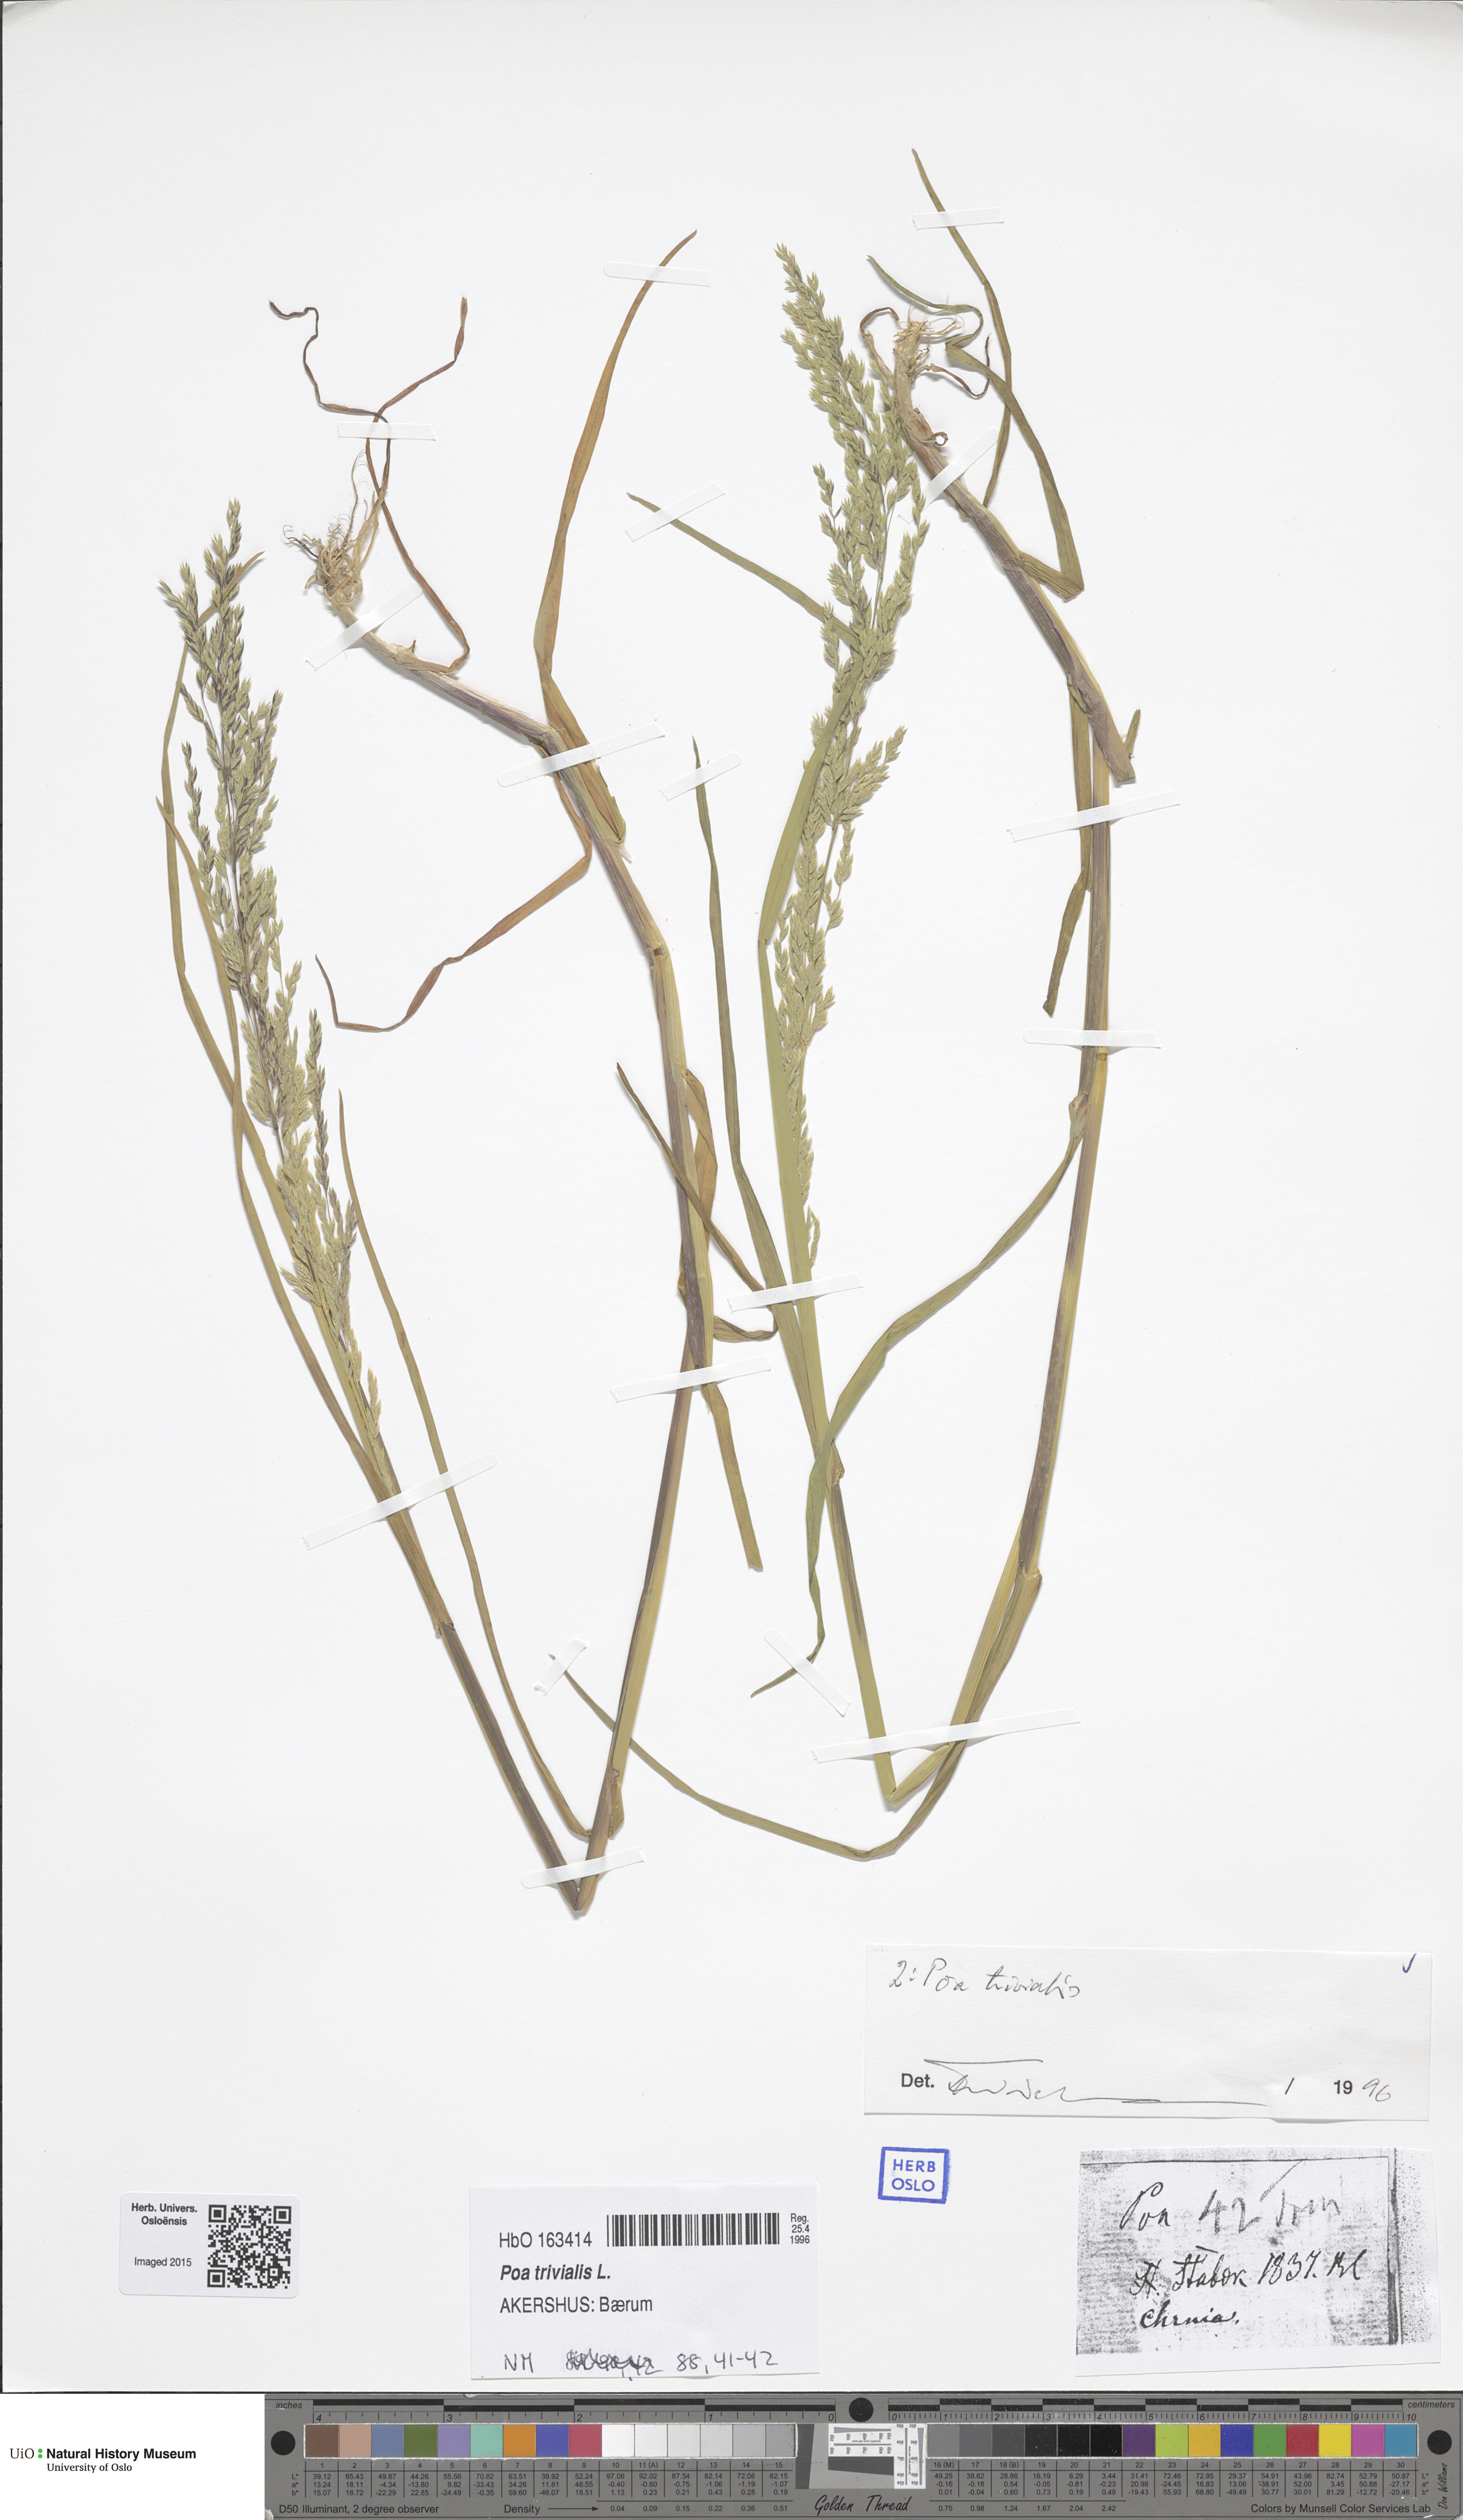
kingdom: Plantae
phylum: Tracheophyta
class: Liliopsida
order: Poales
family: Poaceae
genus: Poa
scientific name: Poa trivialis
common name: Rough bluegrass
